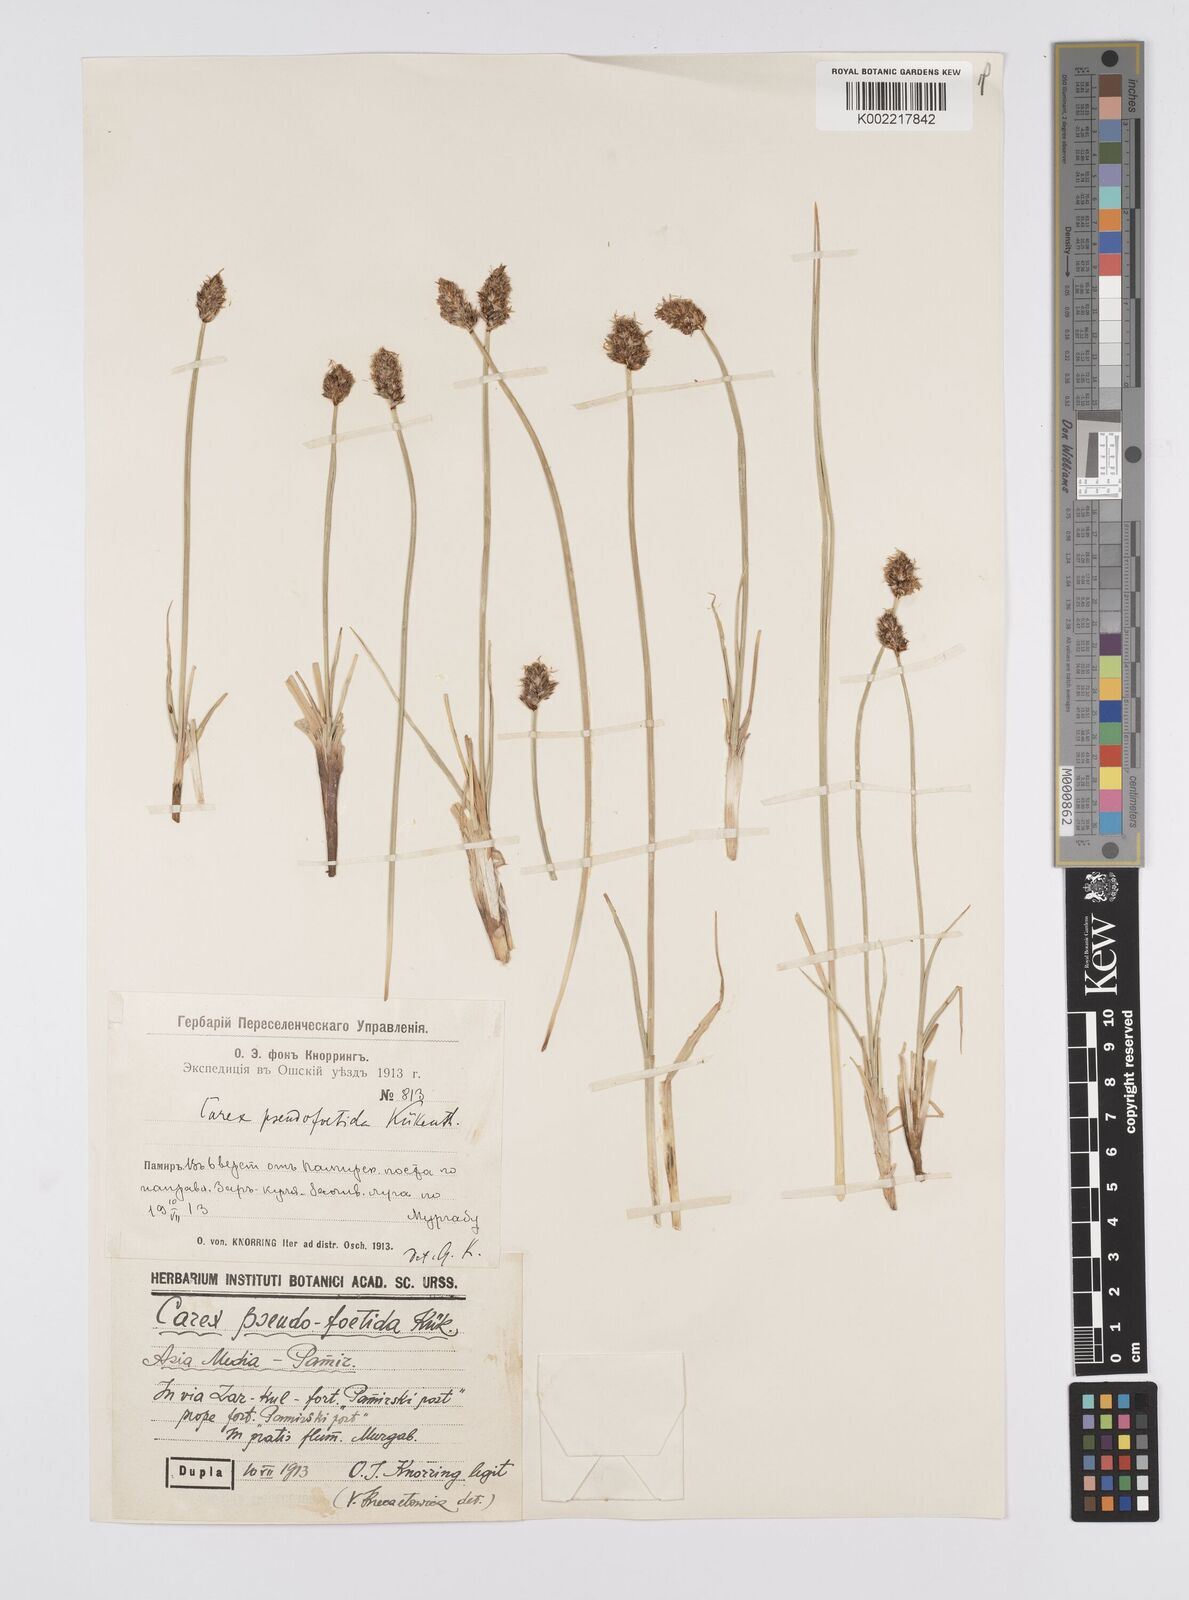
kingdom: Plantae
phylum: Tracheophyta
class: Liliopsida
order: Poales
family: Cyperaceae
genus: Carex
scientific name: Carex pseudofoetida
